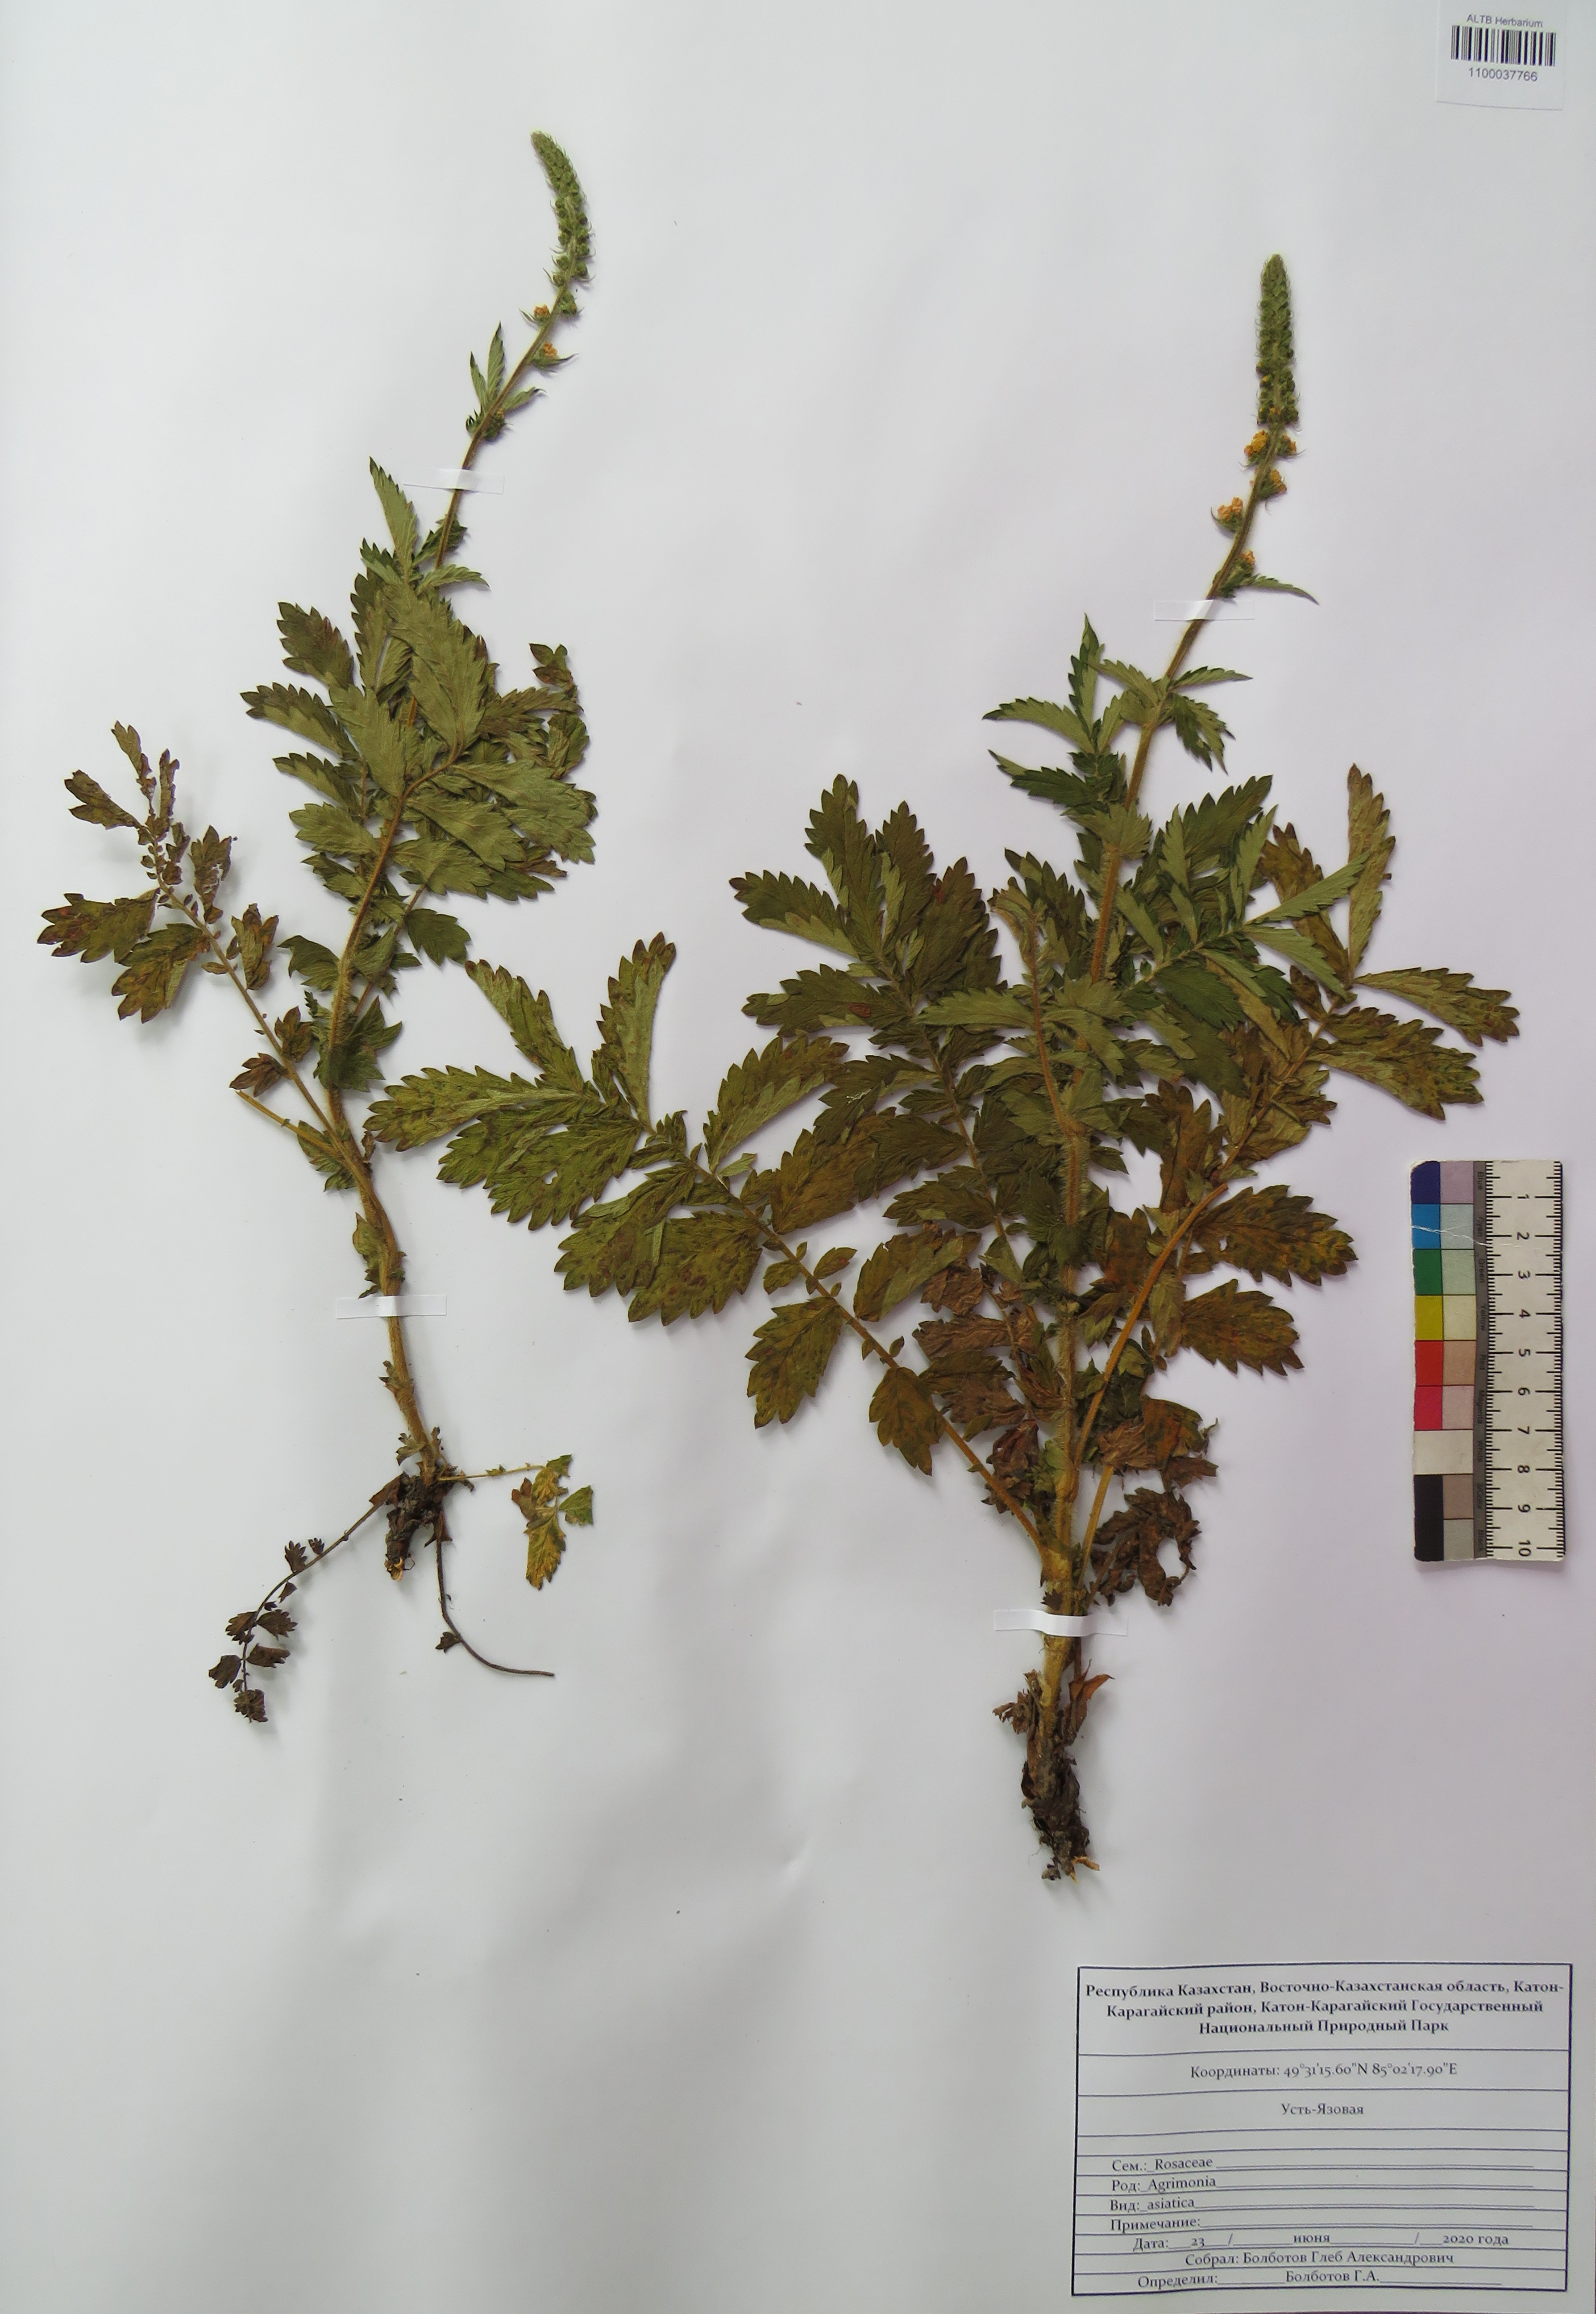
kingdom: Plantae
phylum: Tracheophyta
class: Magnoliopsida
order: Rosales
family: Rosaceae
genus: Agrimonia
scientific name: Agrimonia eupatoria
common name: Agrimony
